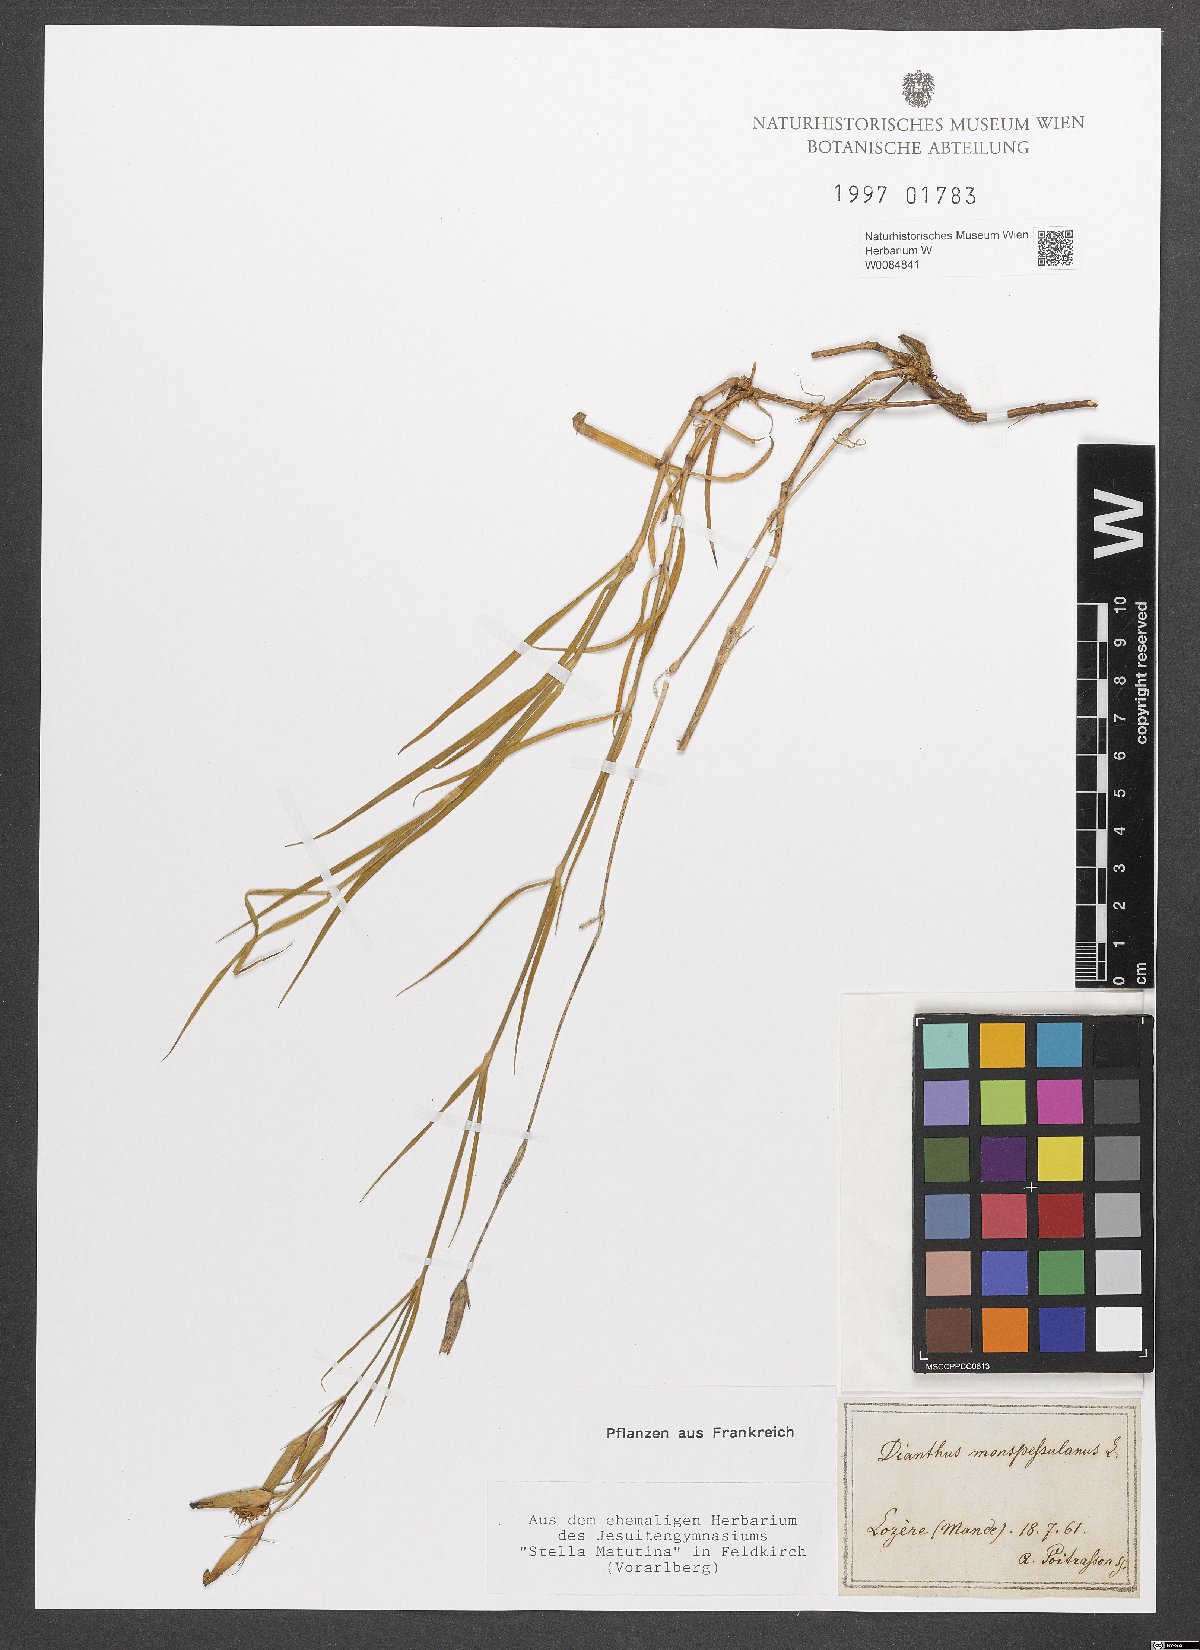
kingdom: Plantae
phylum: Tracheophyta
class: Magnoliopsida
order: Caryophyllales
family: Caryophyllaceae
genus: Dianthus
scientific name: Dianthus hyssopifolius
